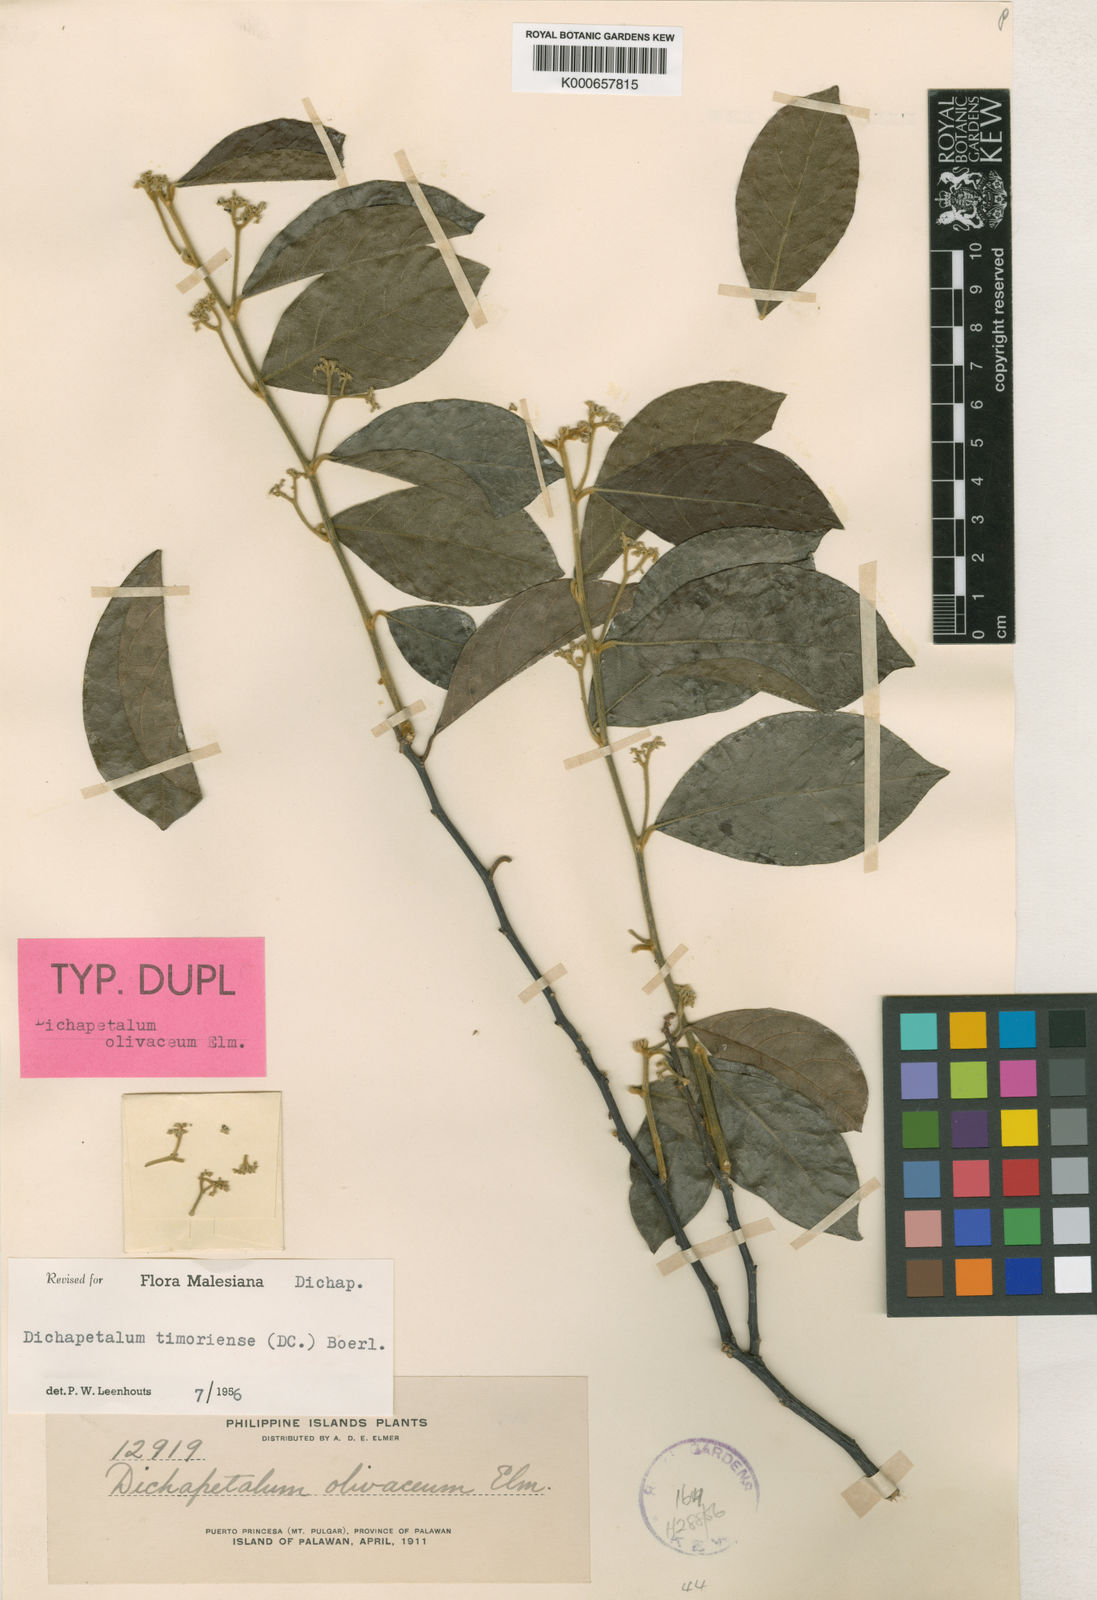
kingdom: Plantae
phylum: Tracheophyta
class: Magnoliopsida
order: Malpighiales
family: Dichapetalaceae
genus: Dichapetalum
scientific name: Dichapetalum timoriense
